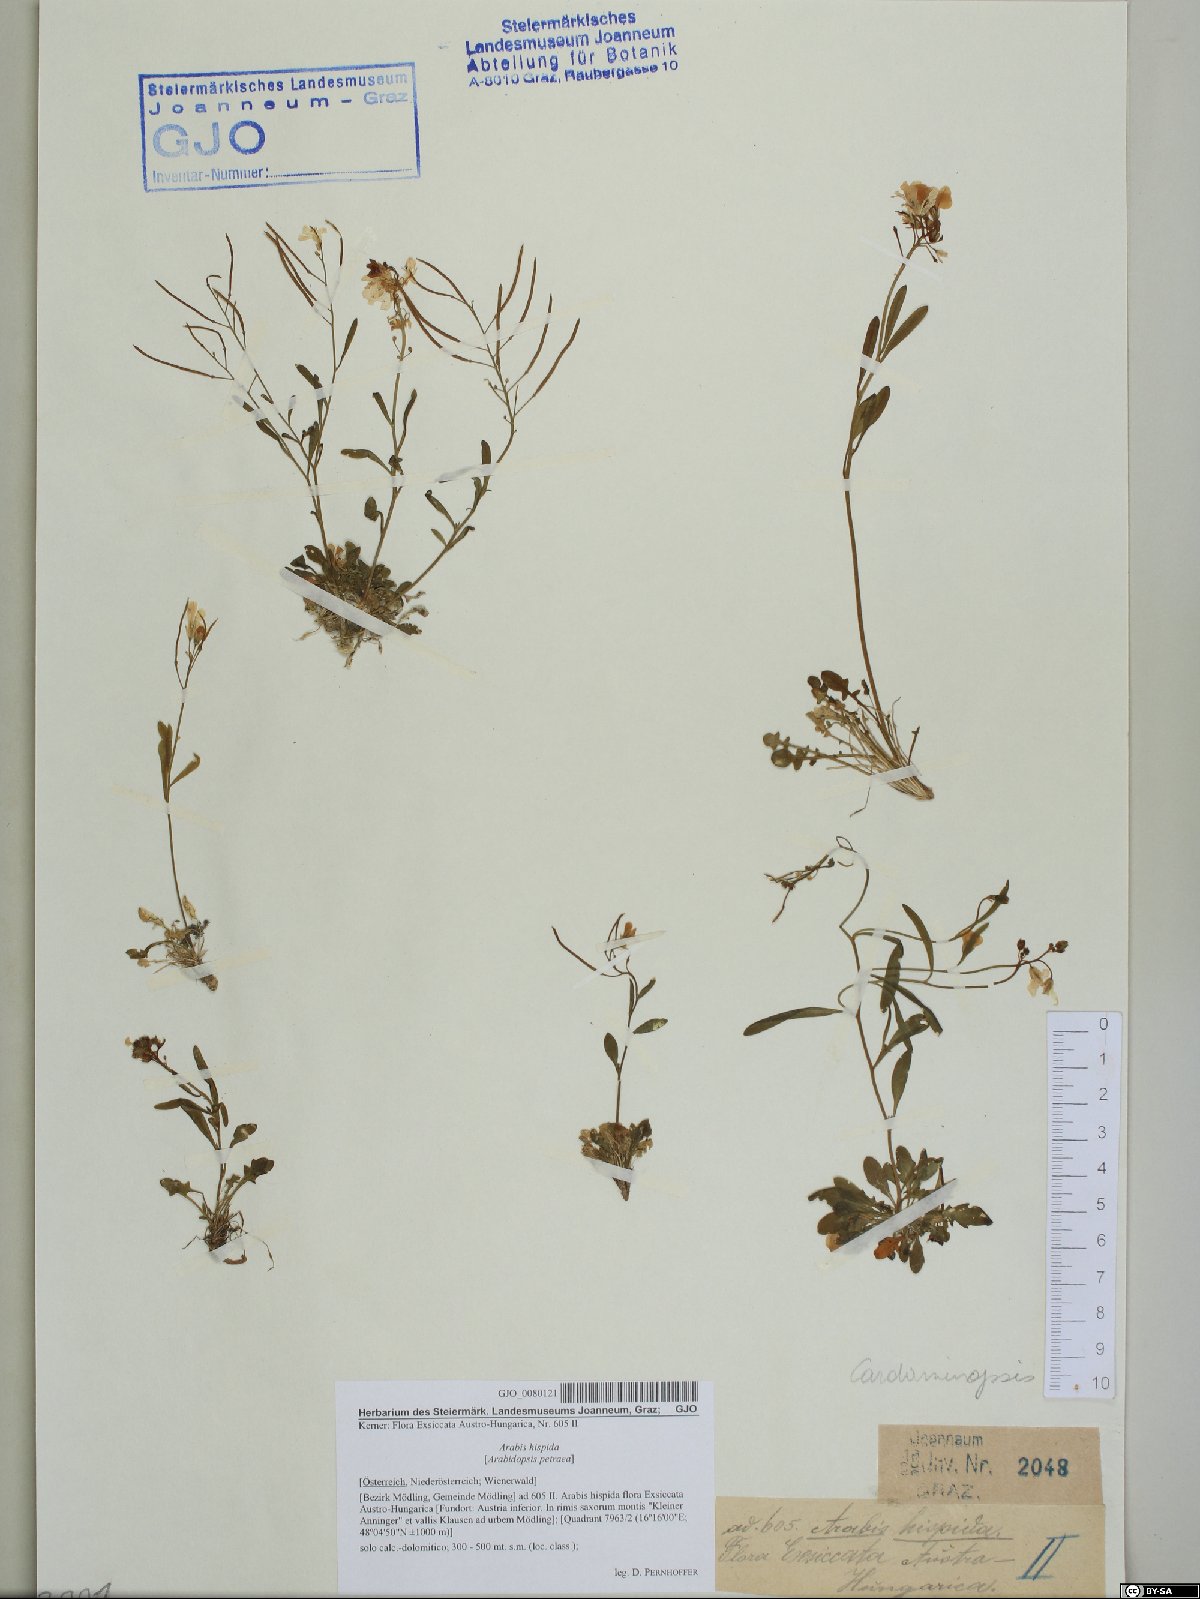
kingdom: Plantae
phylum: Tracheophyta
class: Magnoliopsida
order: Brassicales
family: Brassicaceae
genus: Arabidopsis
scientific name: Arabidopsis lyrata
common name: Lyrate rockcress
